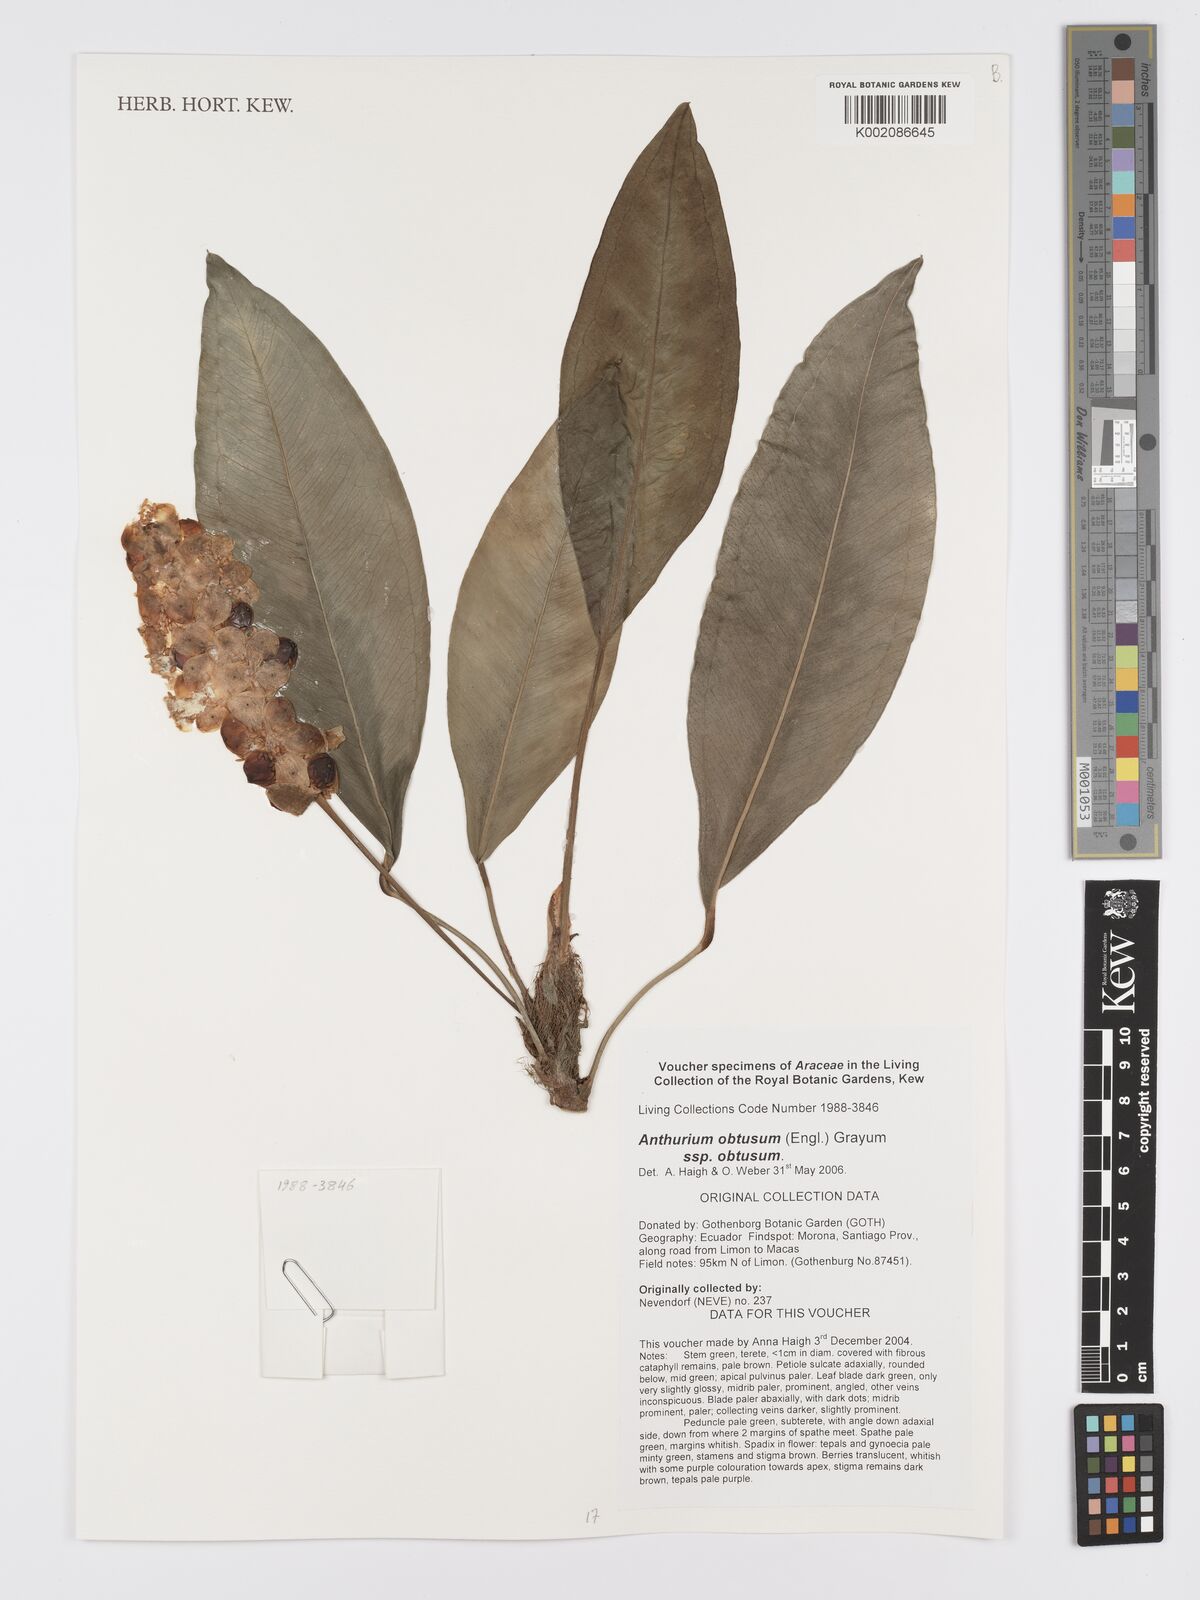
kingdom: Plantae
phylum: Tracheophyta
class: Liliopsida
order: Alismatales
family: Araceae
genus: Anthurium
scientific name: Anthurium obtusum
